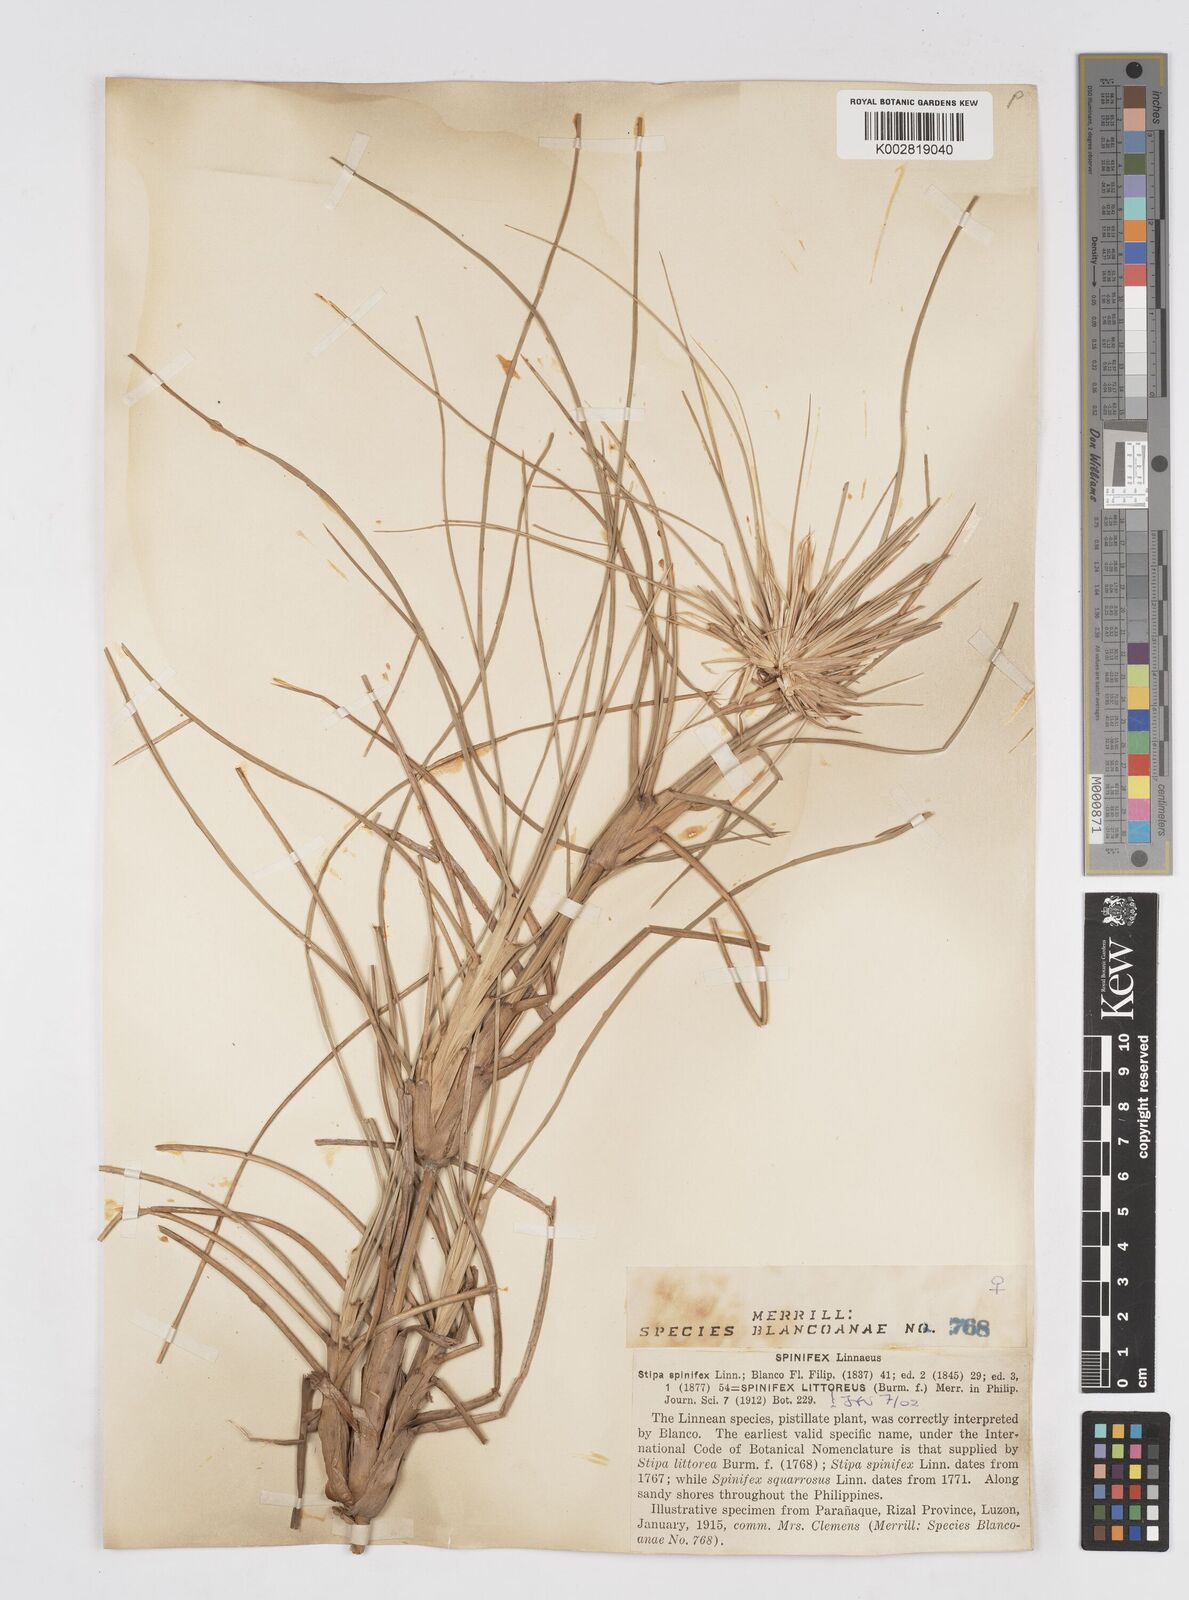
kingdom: Plantae
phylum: Tracheophyta
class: Liliopsida
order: Poales
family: Poaceae
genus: Spinifex
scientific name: Spinifex littoreus
